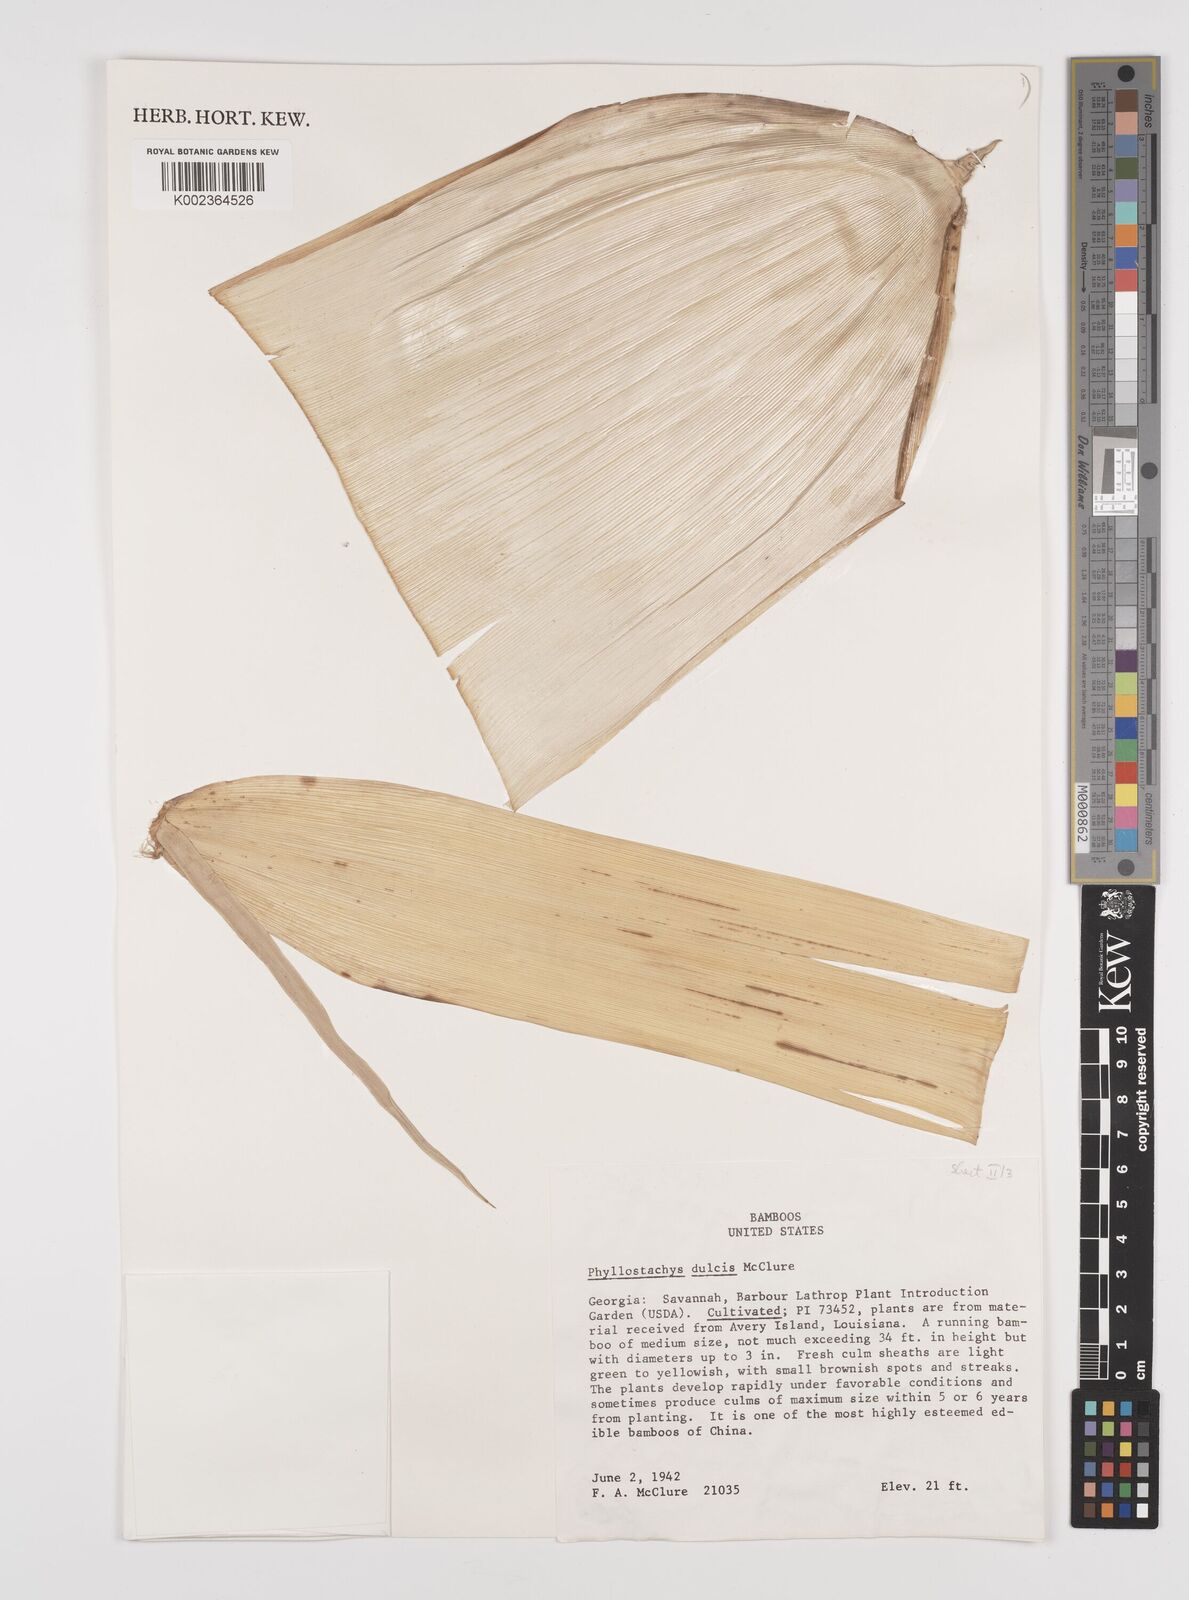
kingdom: Plantae
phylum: Tracheophyta
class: Liliopsida
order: Poales
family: Poaceae
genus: Phyllostachys
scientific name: Phyllostachys dulcis
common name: Sweetshoot bamboo
